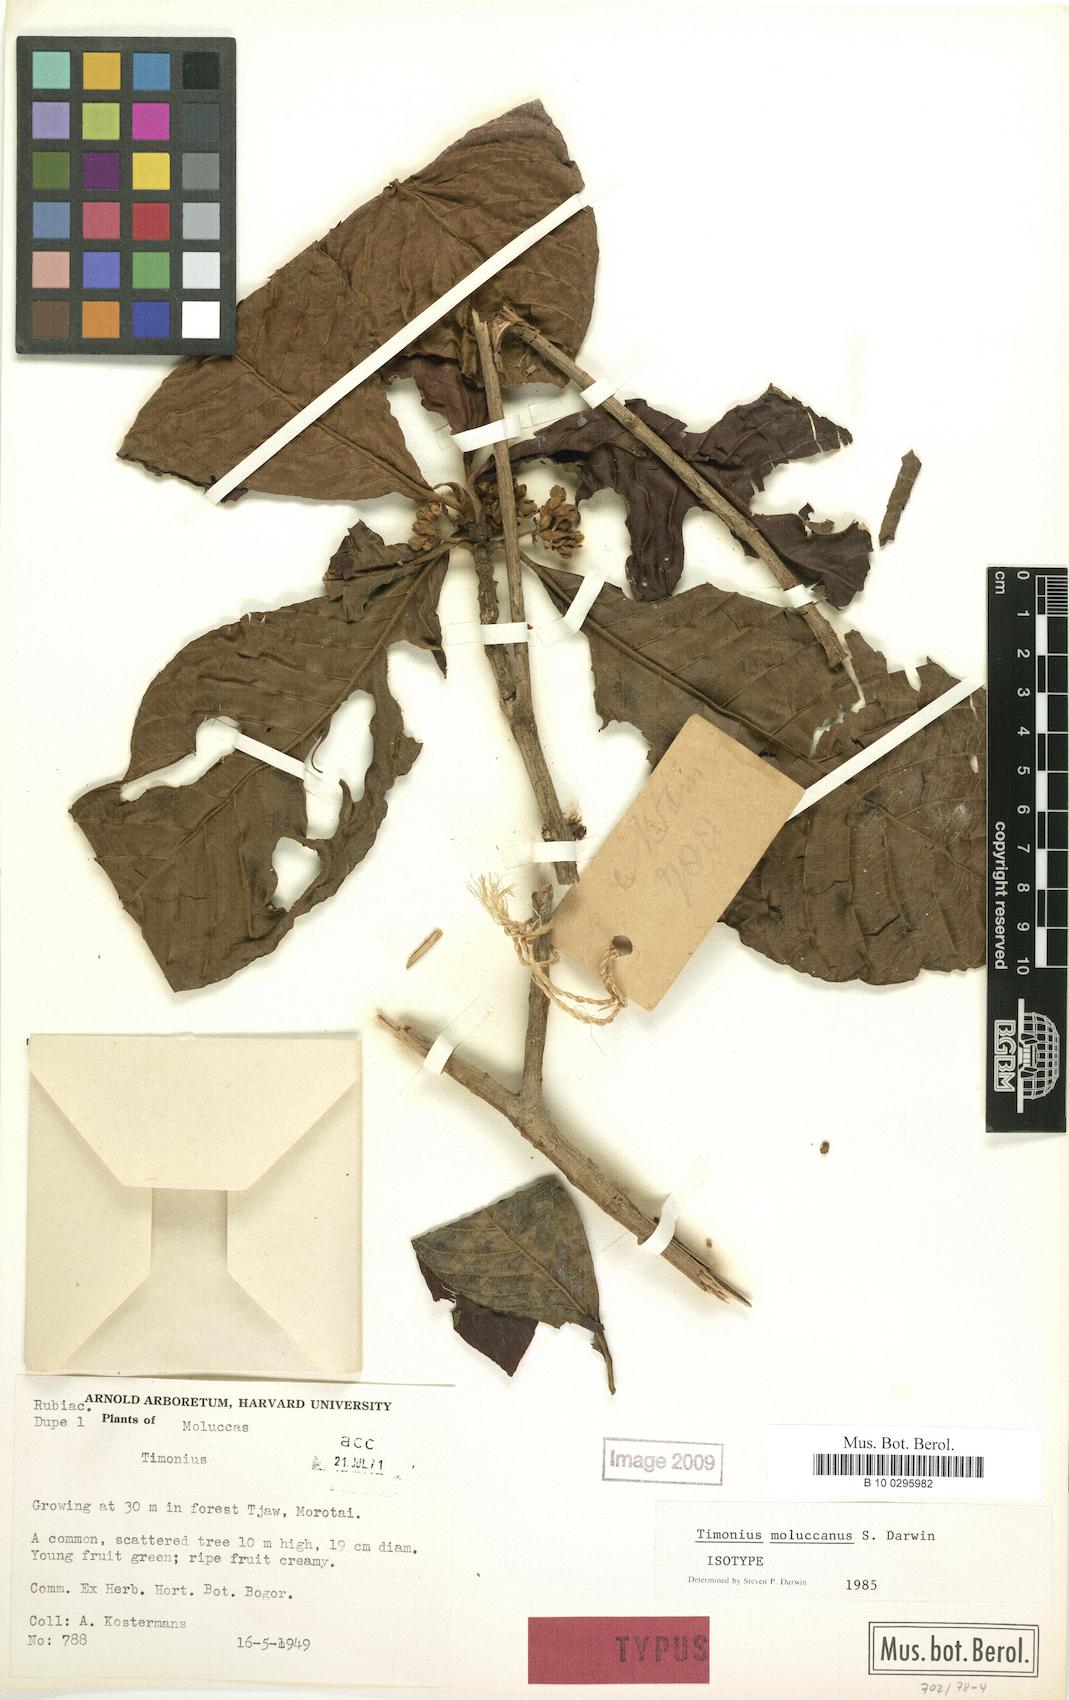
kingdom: Plantae
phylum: Tracheophyta
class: Magnoliopsida
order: Gentianales
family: Rubiaceae
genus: Timonius
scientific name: Timonius moluccanus
